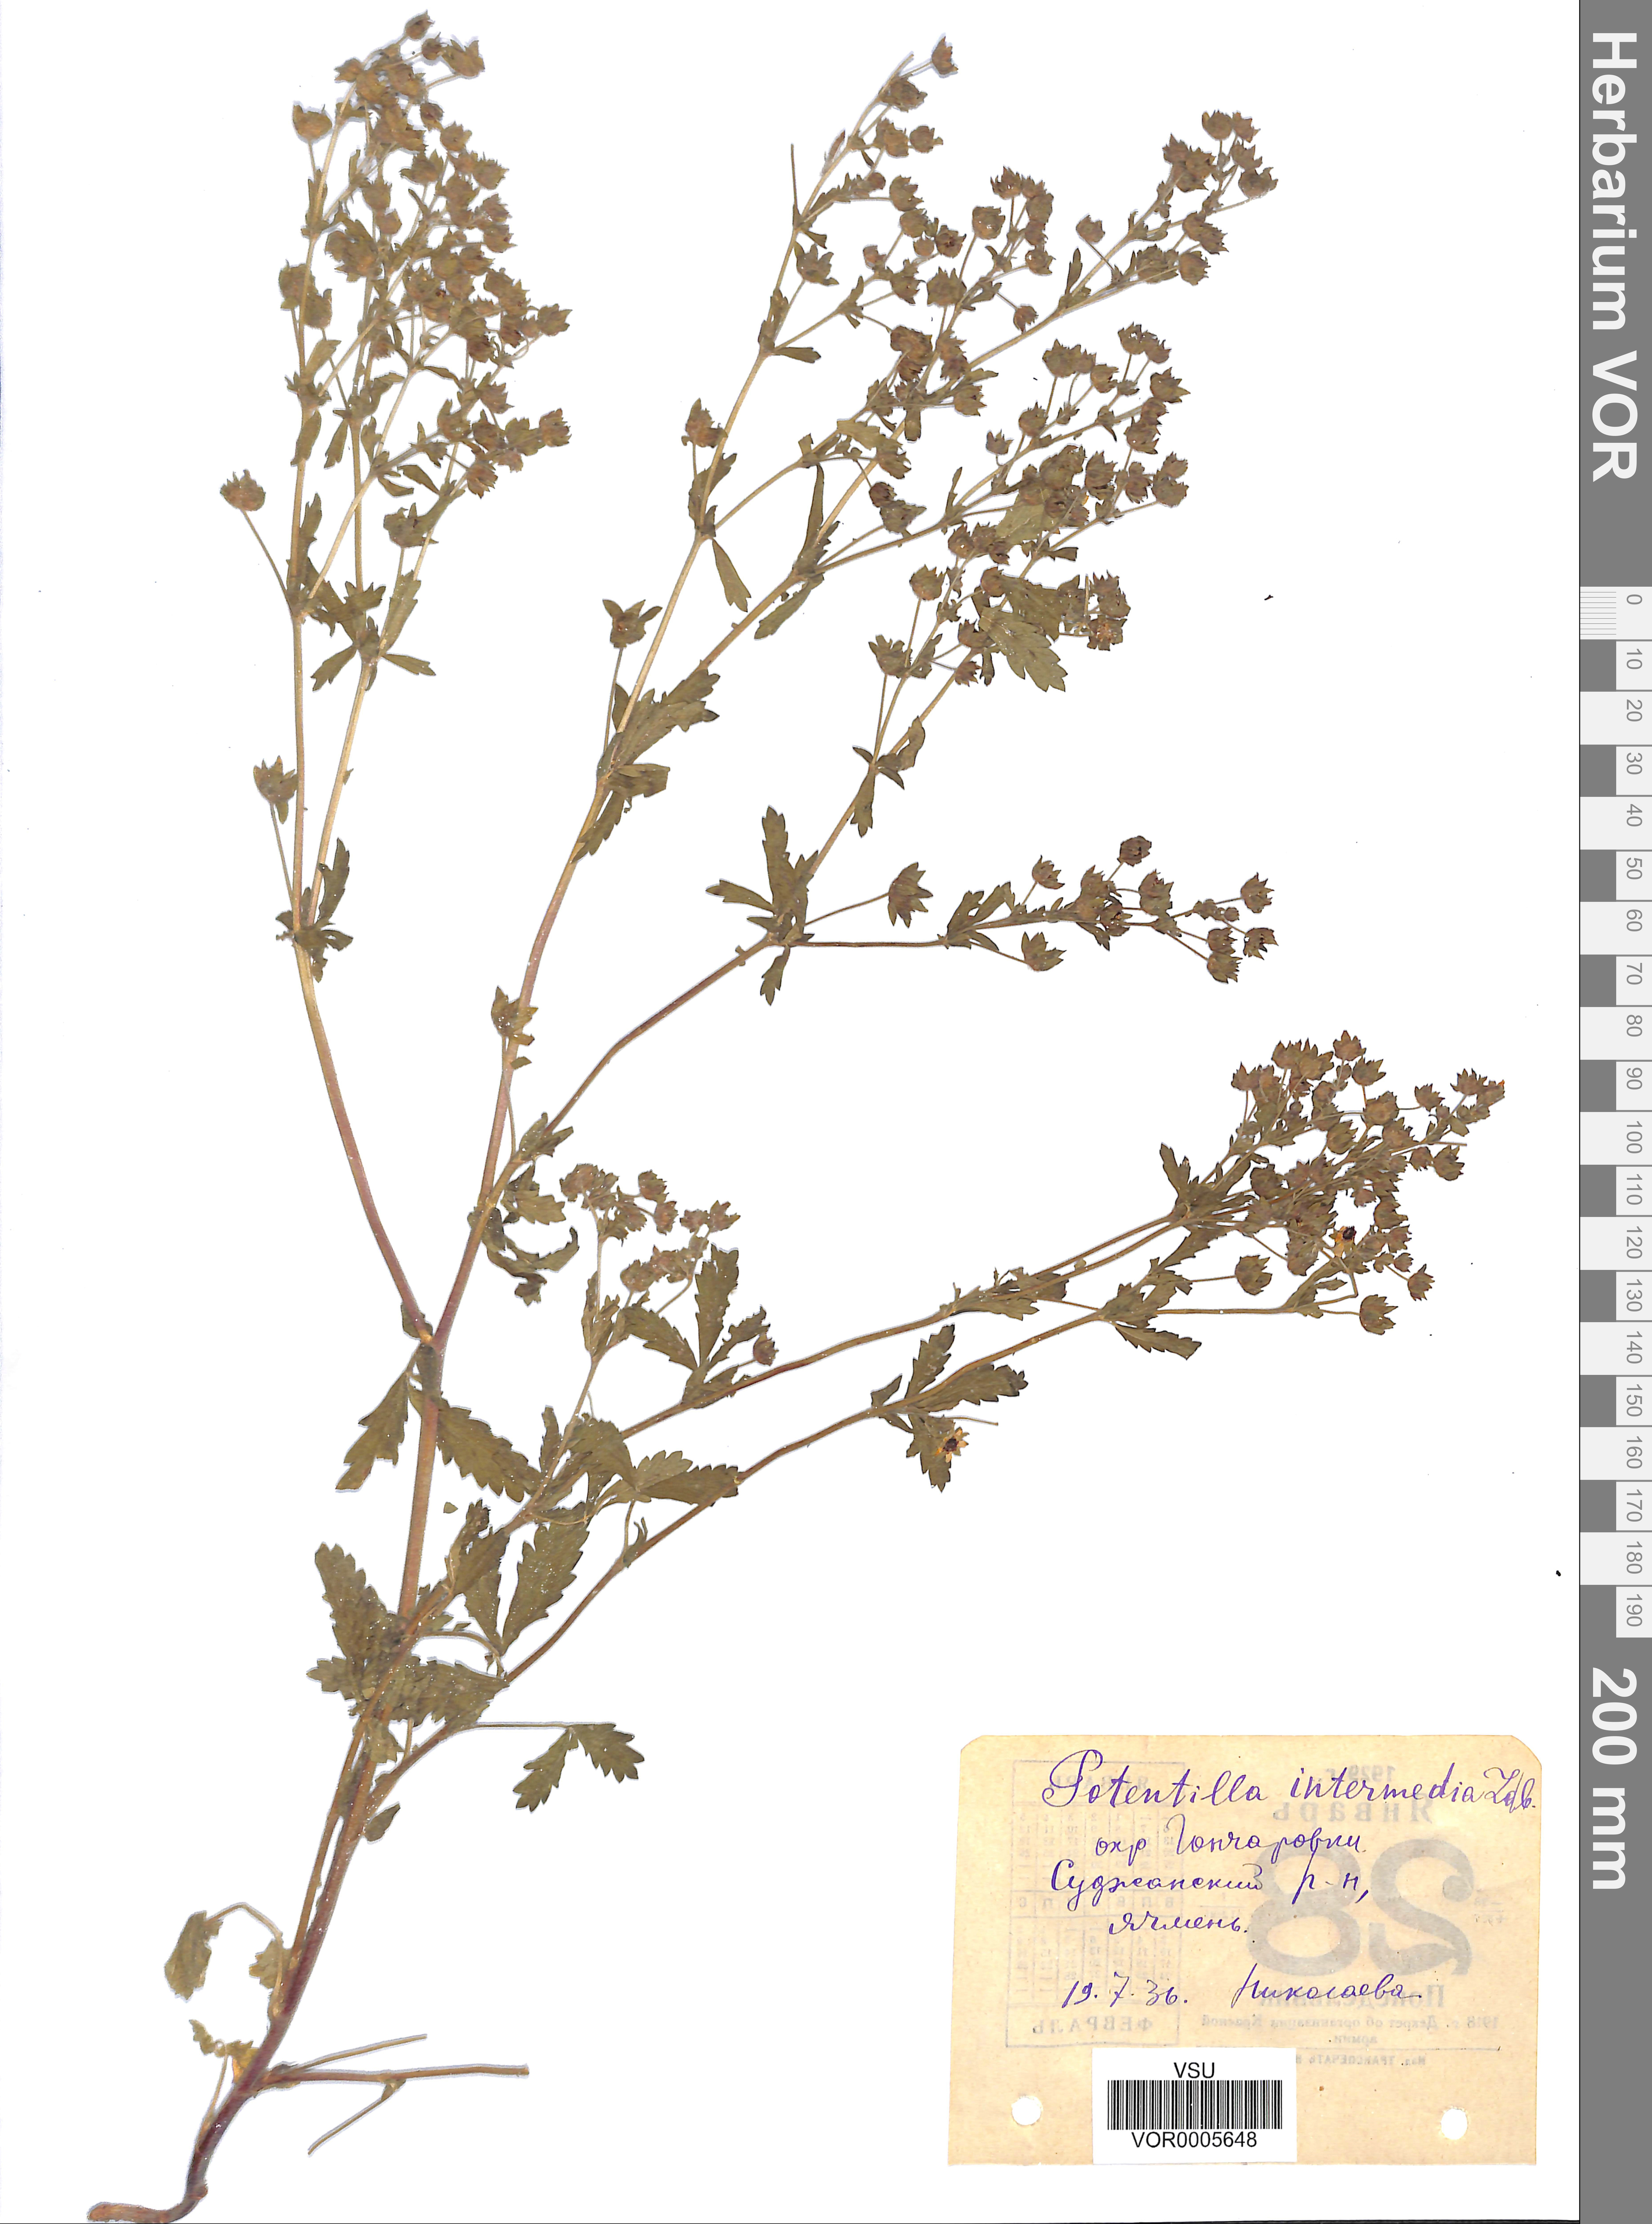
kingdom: Plantae
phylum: Tracheophyta
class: Magnoliopsida
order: Rosales
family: Rosaceae
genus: Potentilla
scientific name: Potentilla norvegica
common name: Ternate-leaved cinquefoil
